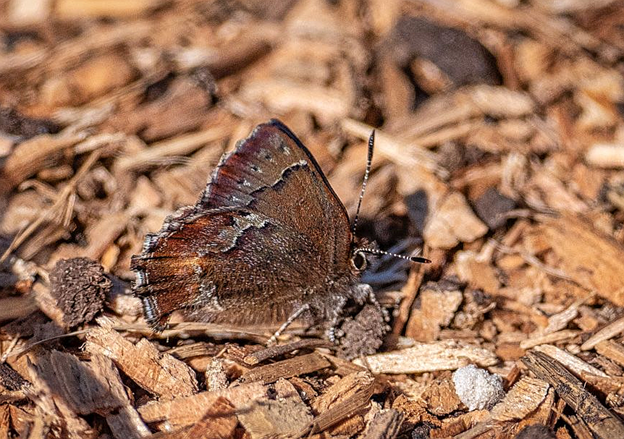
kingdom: Animalia
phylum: Arthropoda
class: Insecta
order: Lepidoptera
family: Lycaenidae
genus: Callophrys
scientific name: Callophrys mossii
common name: Moss' Elfin
